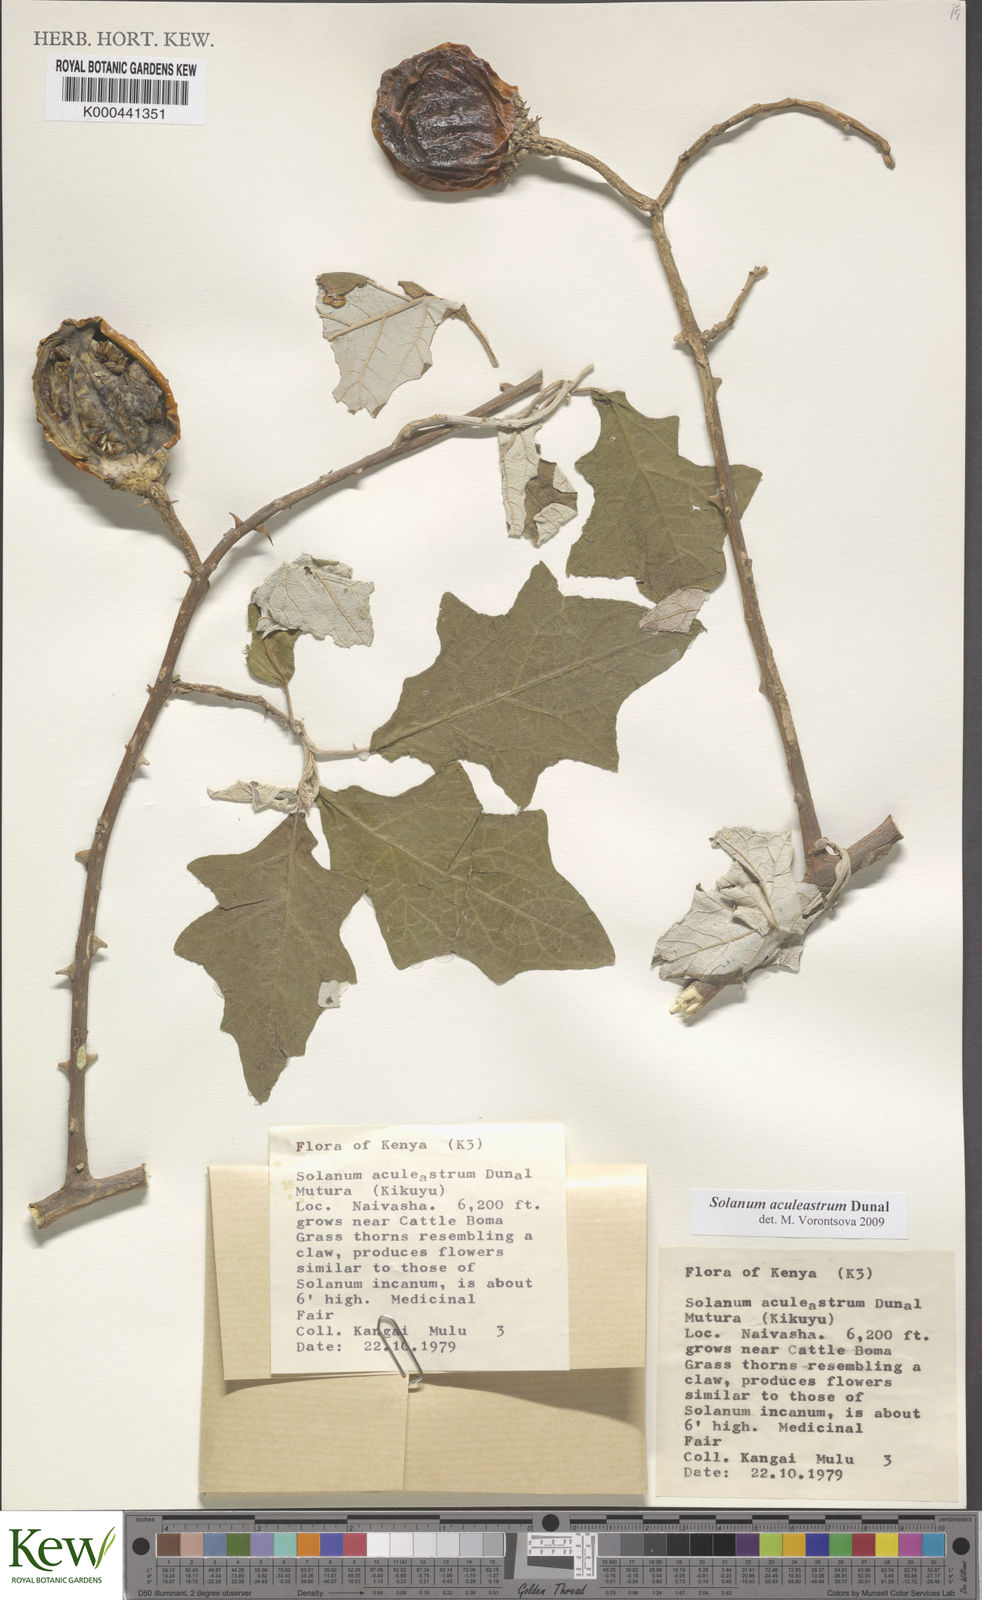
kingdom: Plantae
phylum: Tracheophyta
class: Magnoliopsida
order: Solanales
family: Solanaceae
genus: Solanum
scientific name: Solanum aculeastrum
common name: Goat bitter-apple
